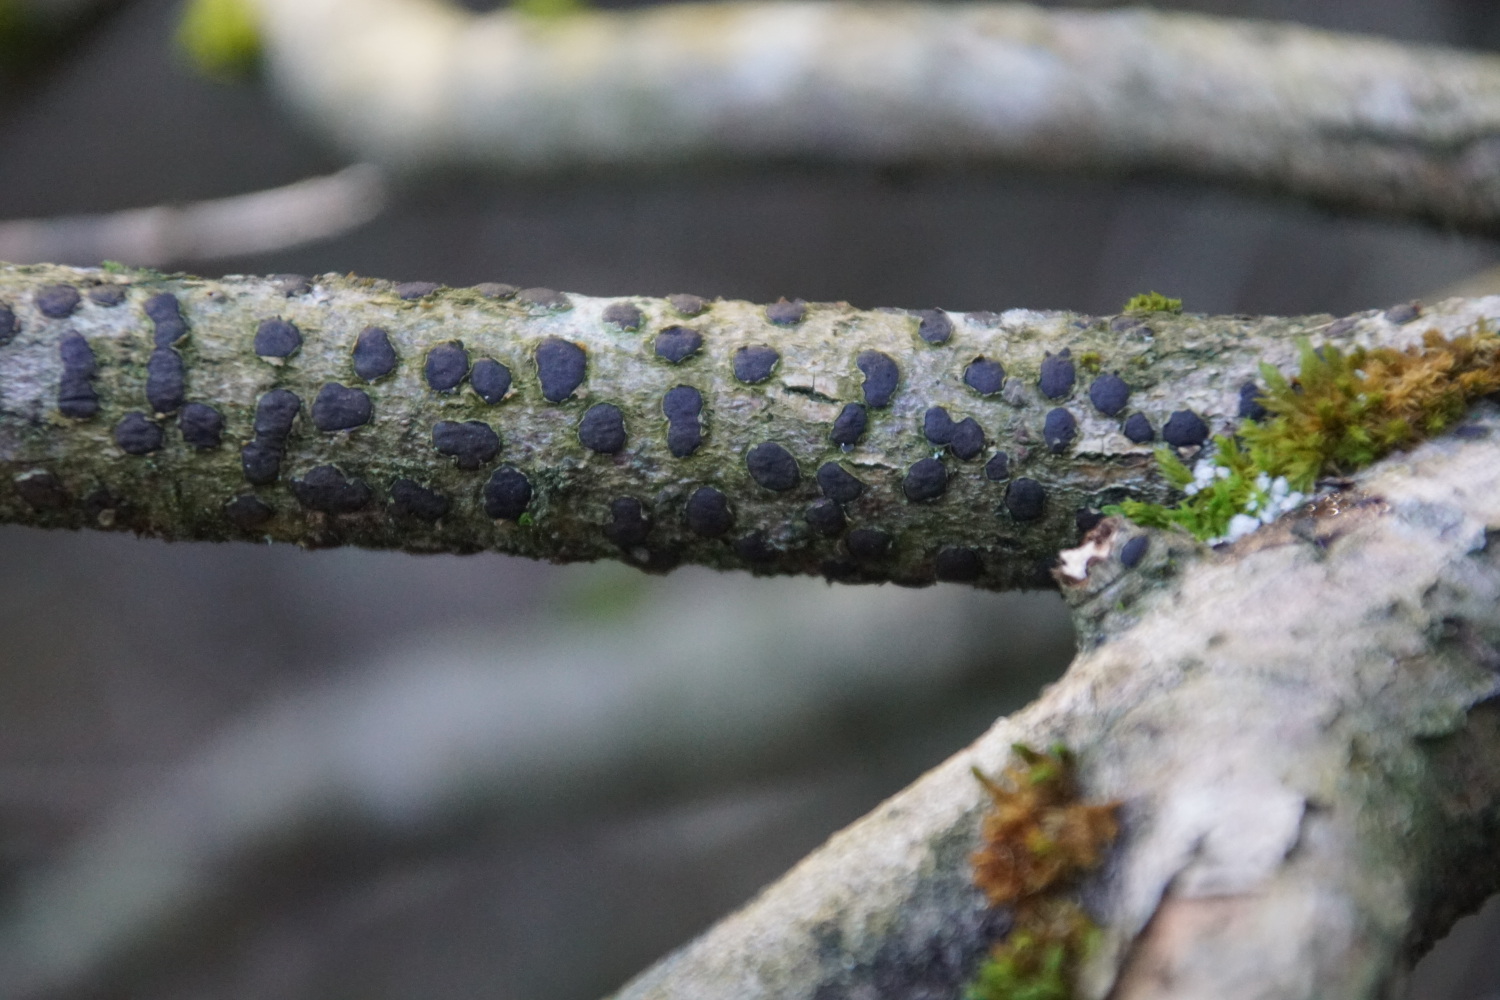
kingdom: Fungi
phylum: Ascomycota
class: Sordariomycetes
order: Xylariales
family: Diatrypaceae
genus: Diatrype
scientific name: Diatrype bullata
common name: pile-kulskorpe
